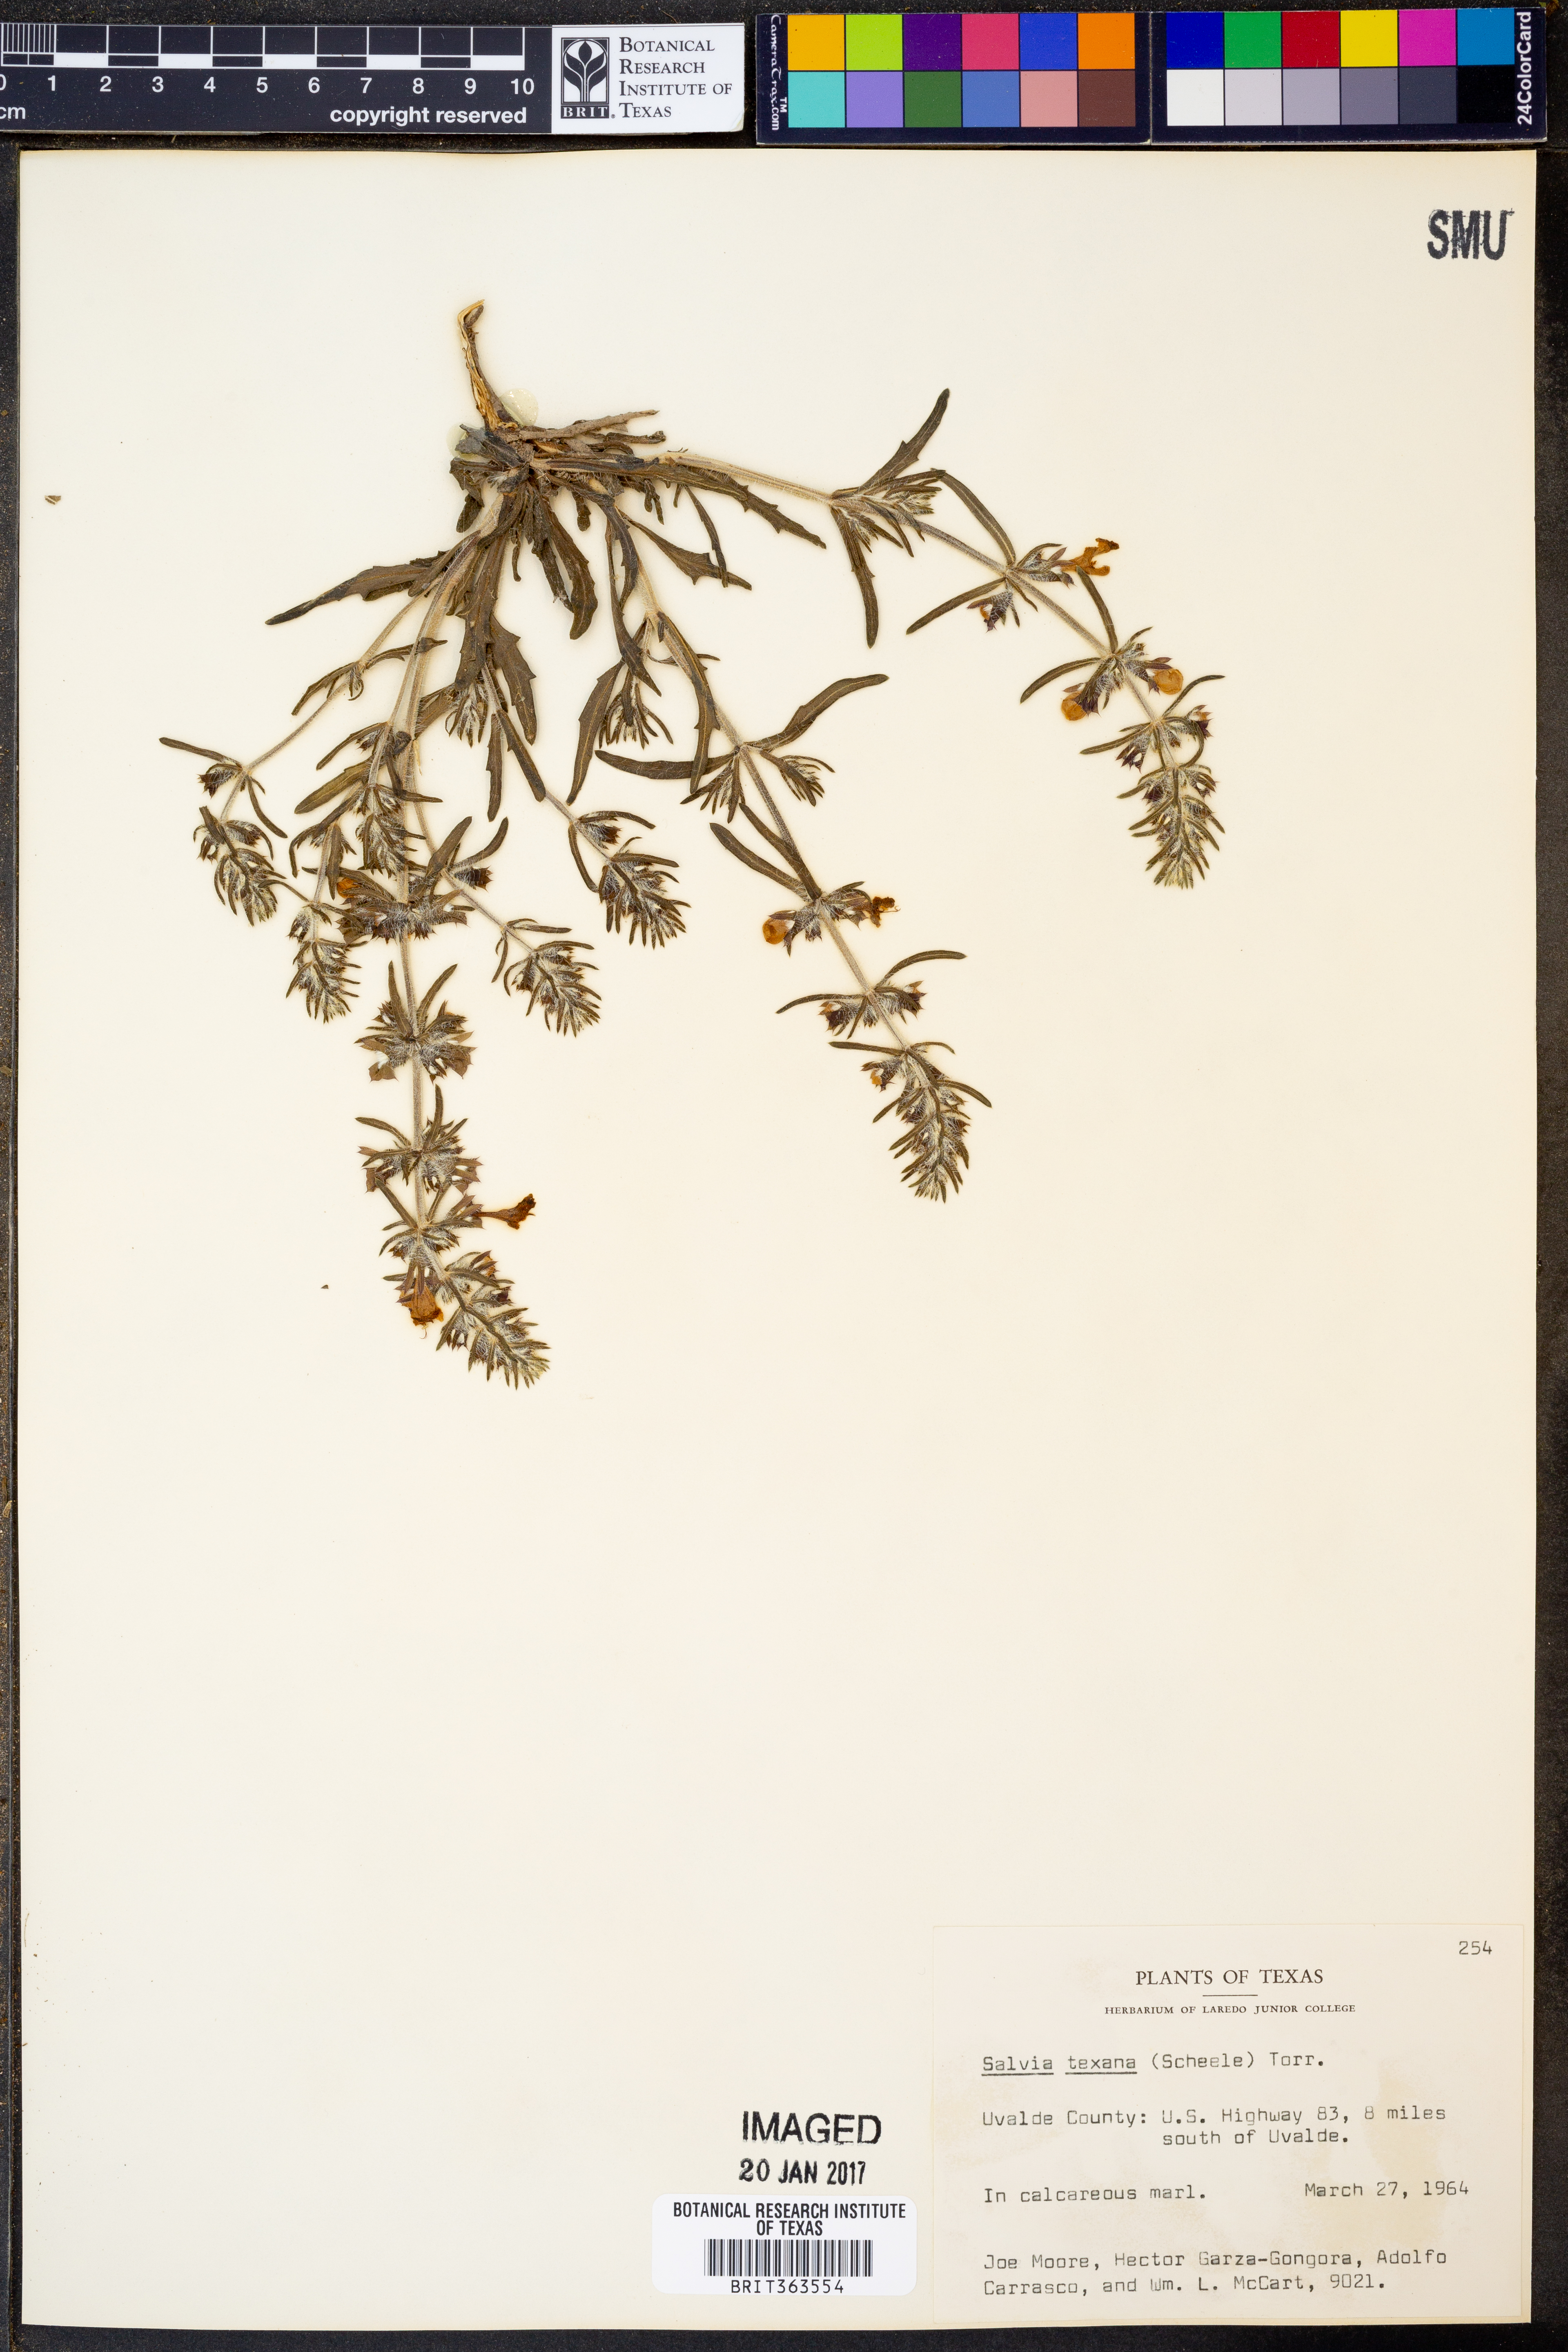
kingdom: Plantae
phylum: Tracheophyta
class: Magnoliopsida
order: Lamiales
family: Lamiaceae
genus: Salvia
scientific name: Salvia texana
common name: Texas sage
